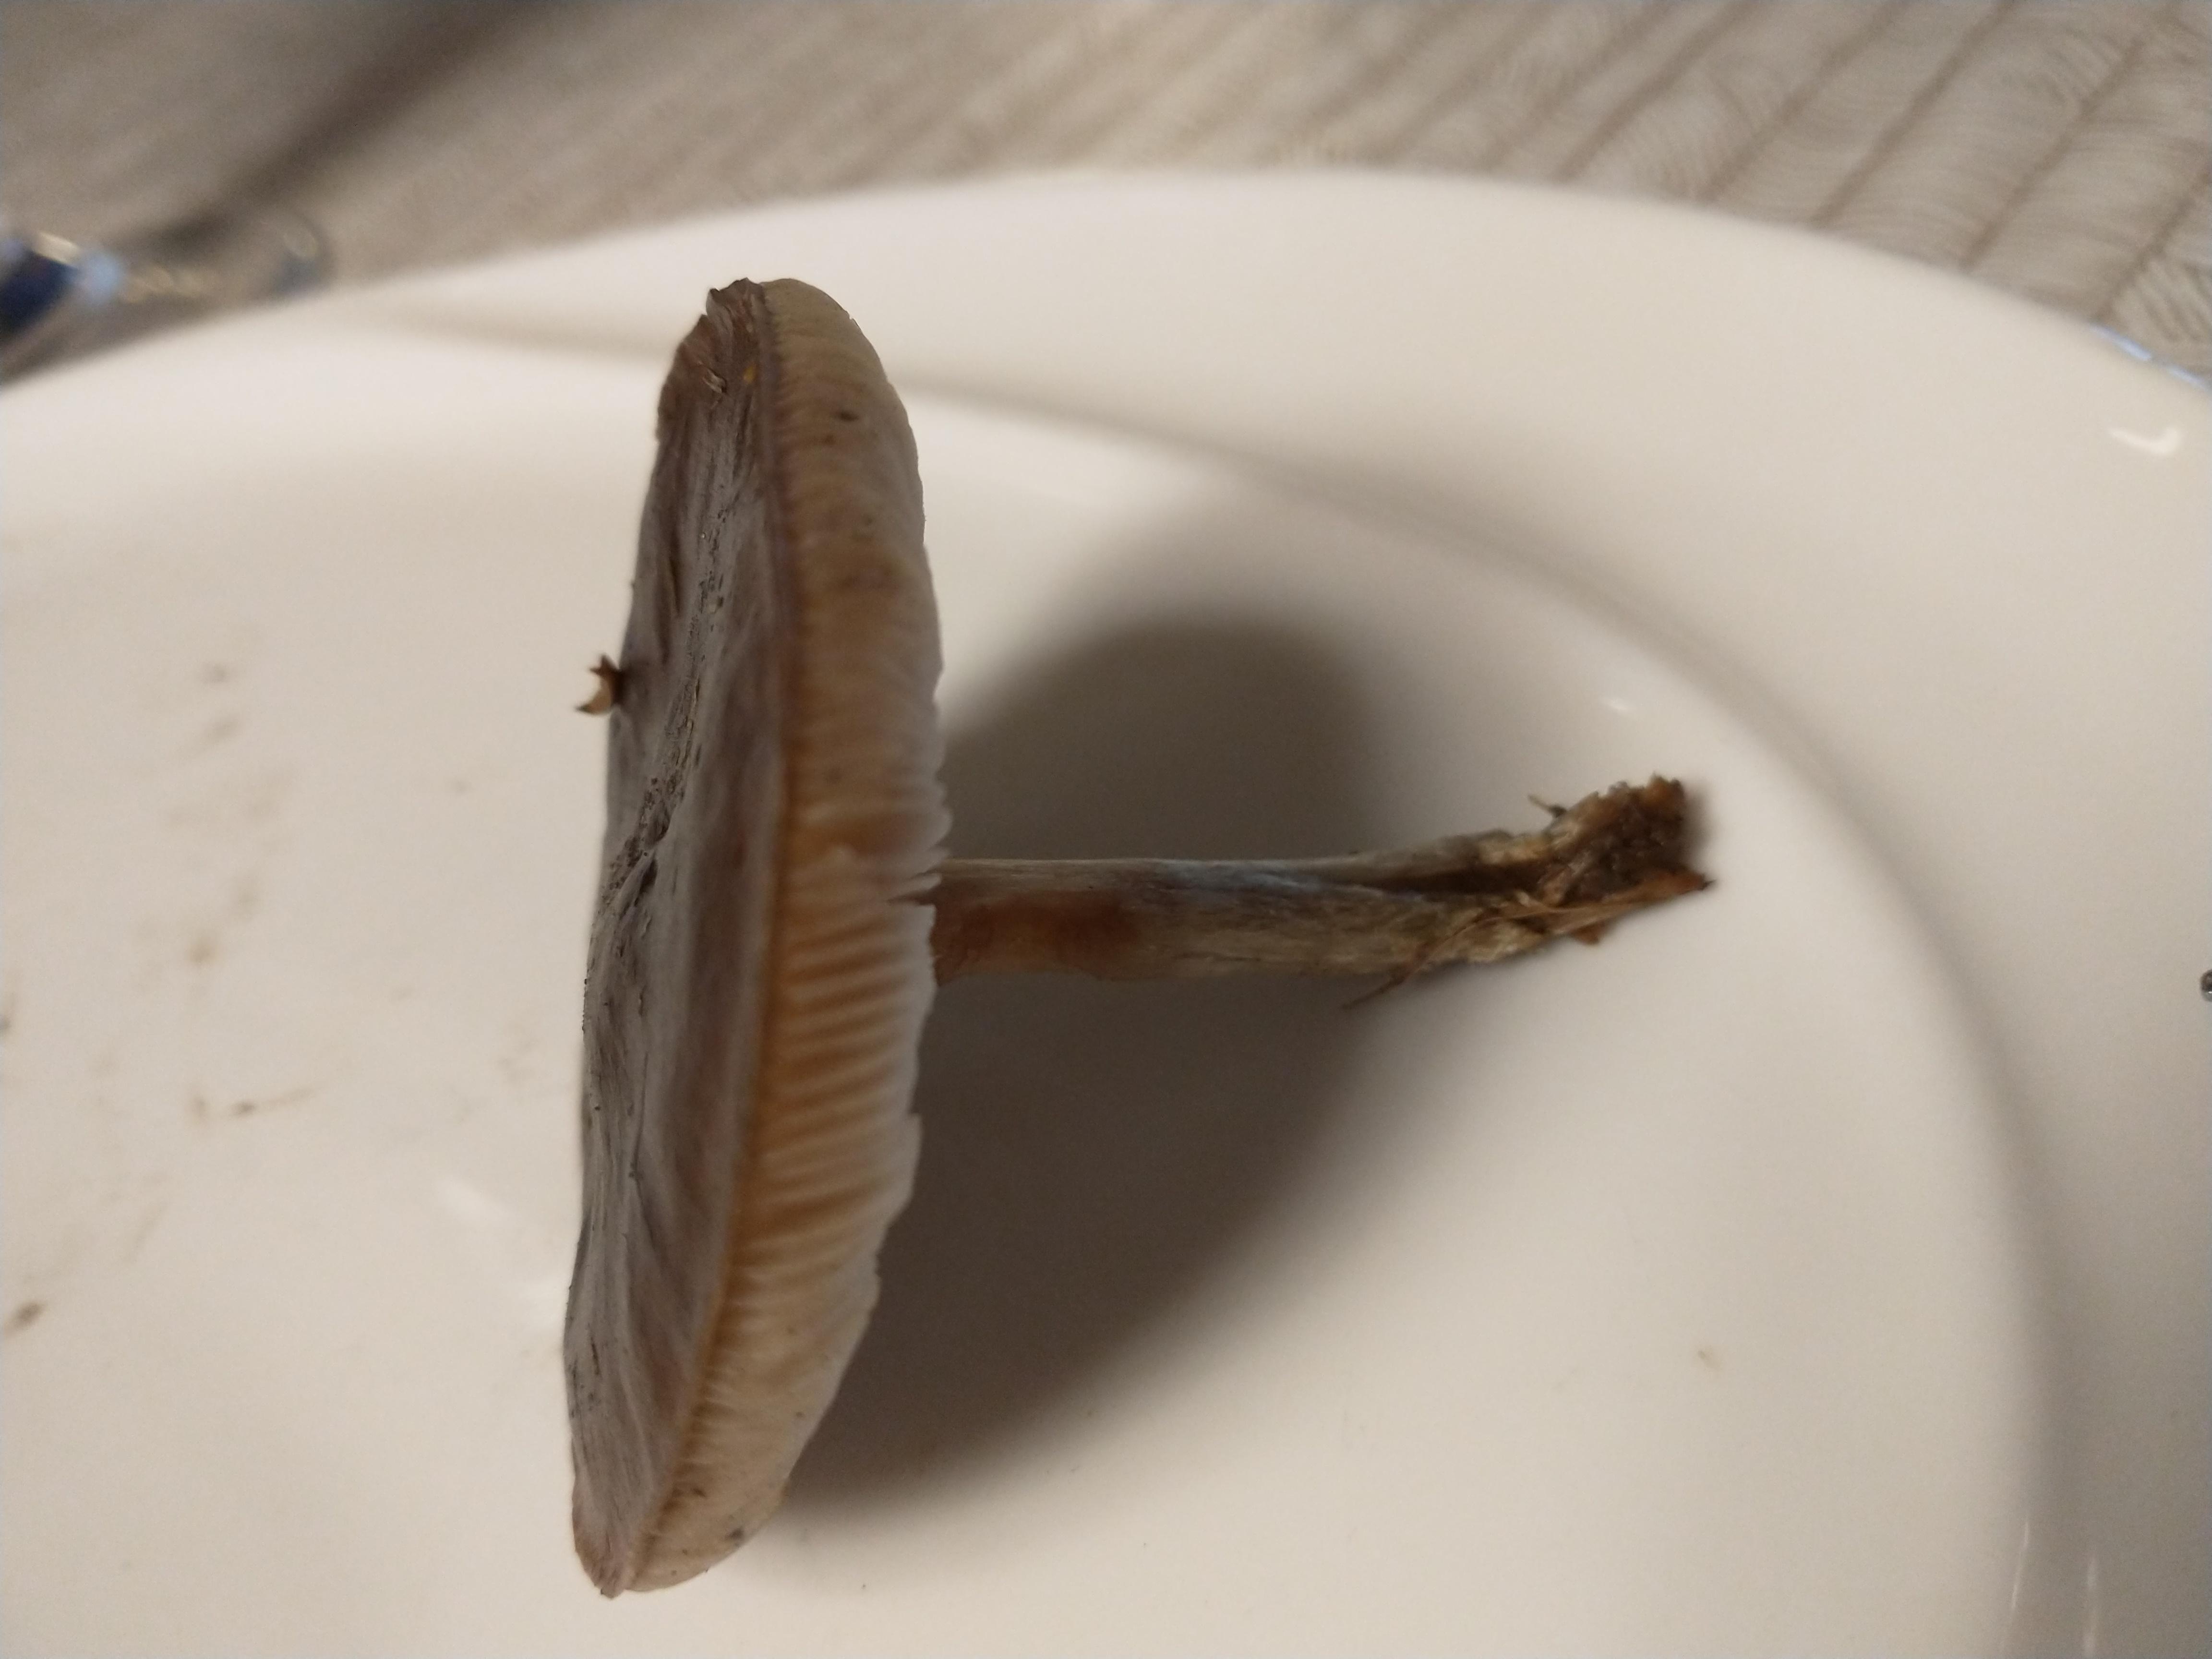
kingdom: Fungi
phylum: Basidiomycota
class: Agaricomycetes
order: Agaricales
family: Tricholomataceae
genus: Melanoleuca
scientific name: Melanoleuca
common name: munkehat
